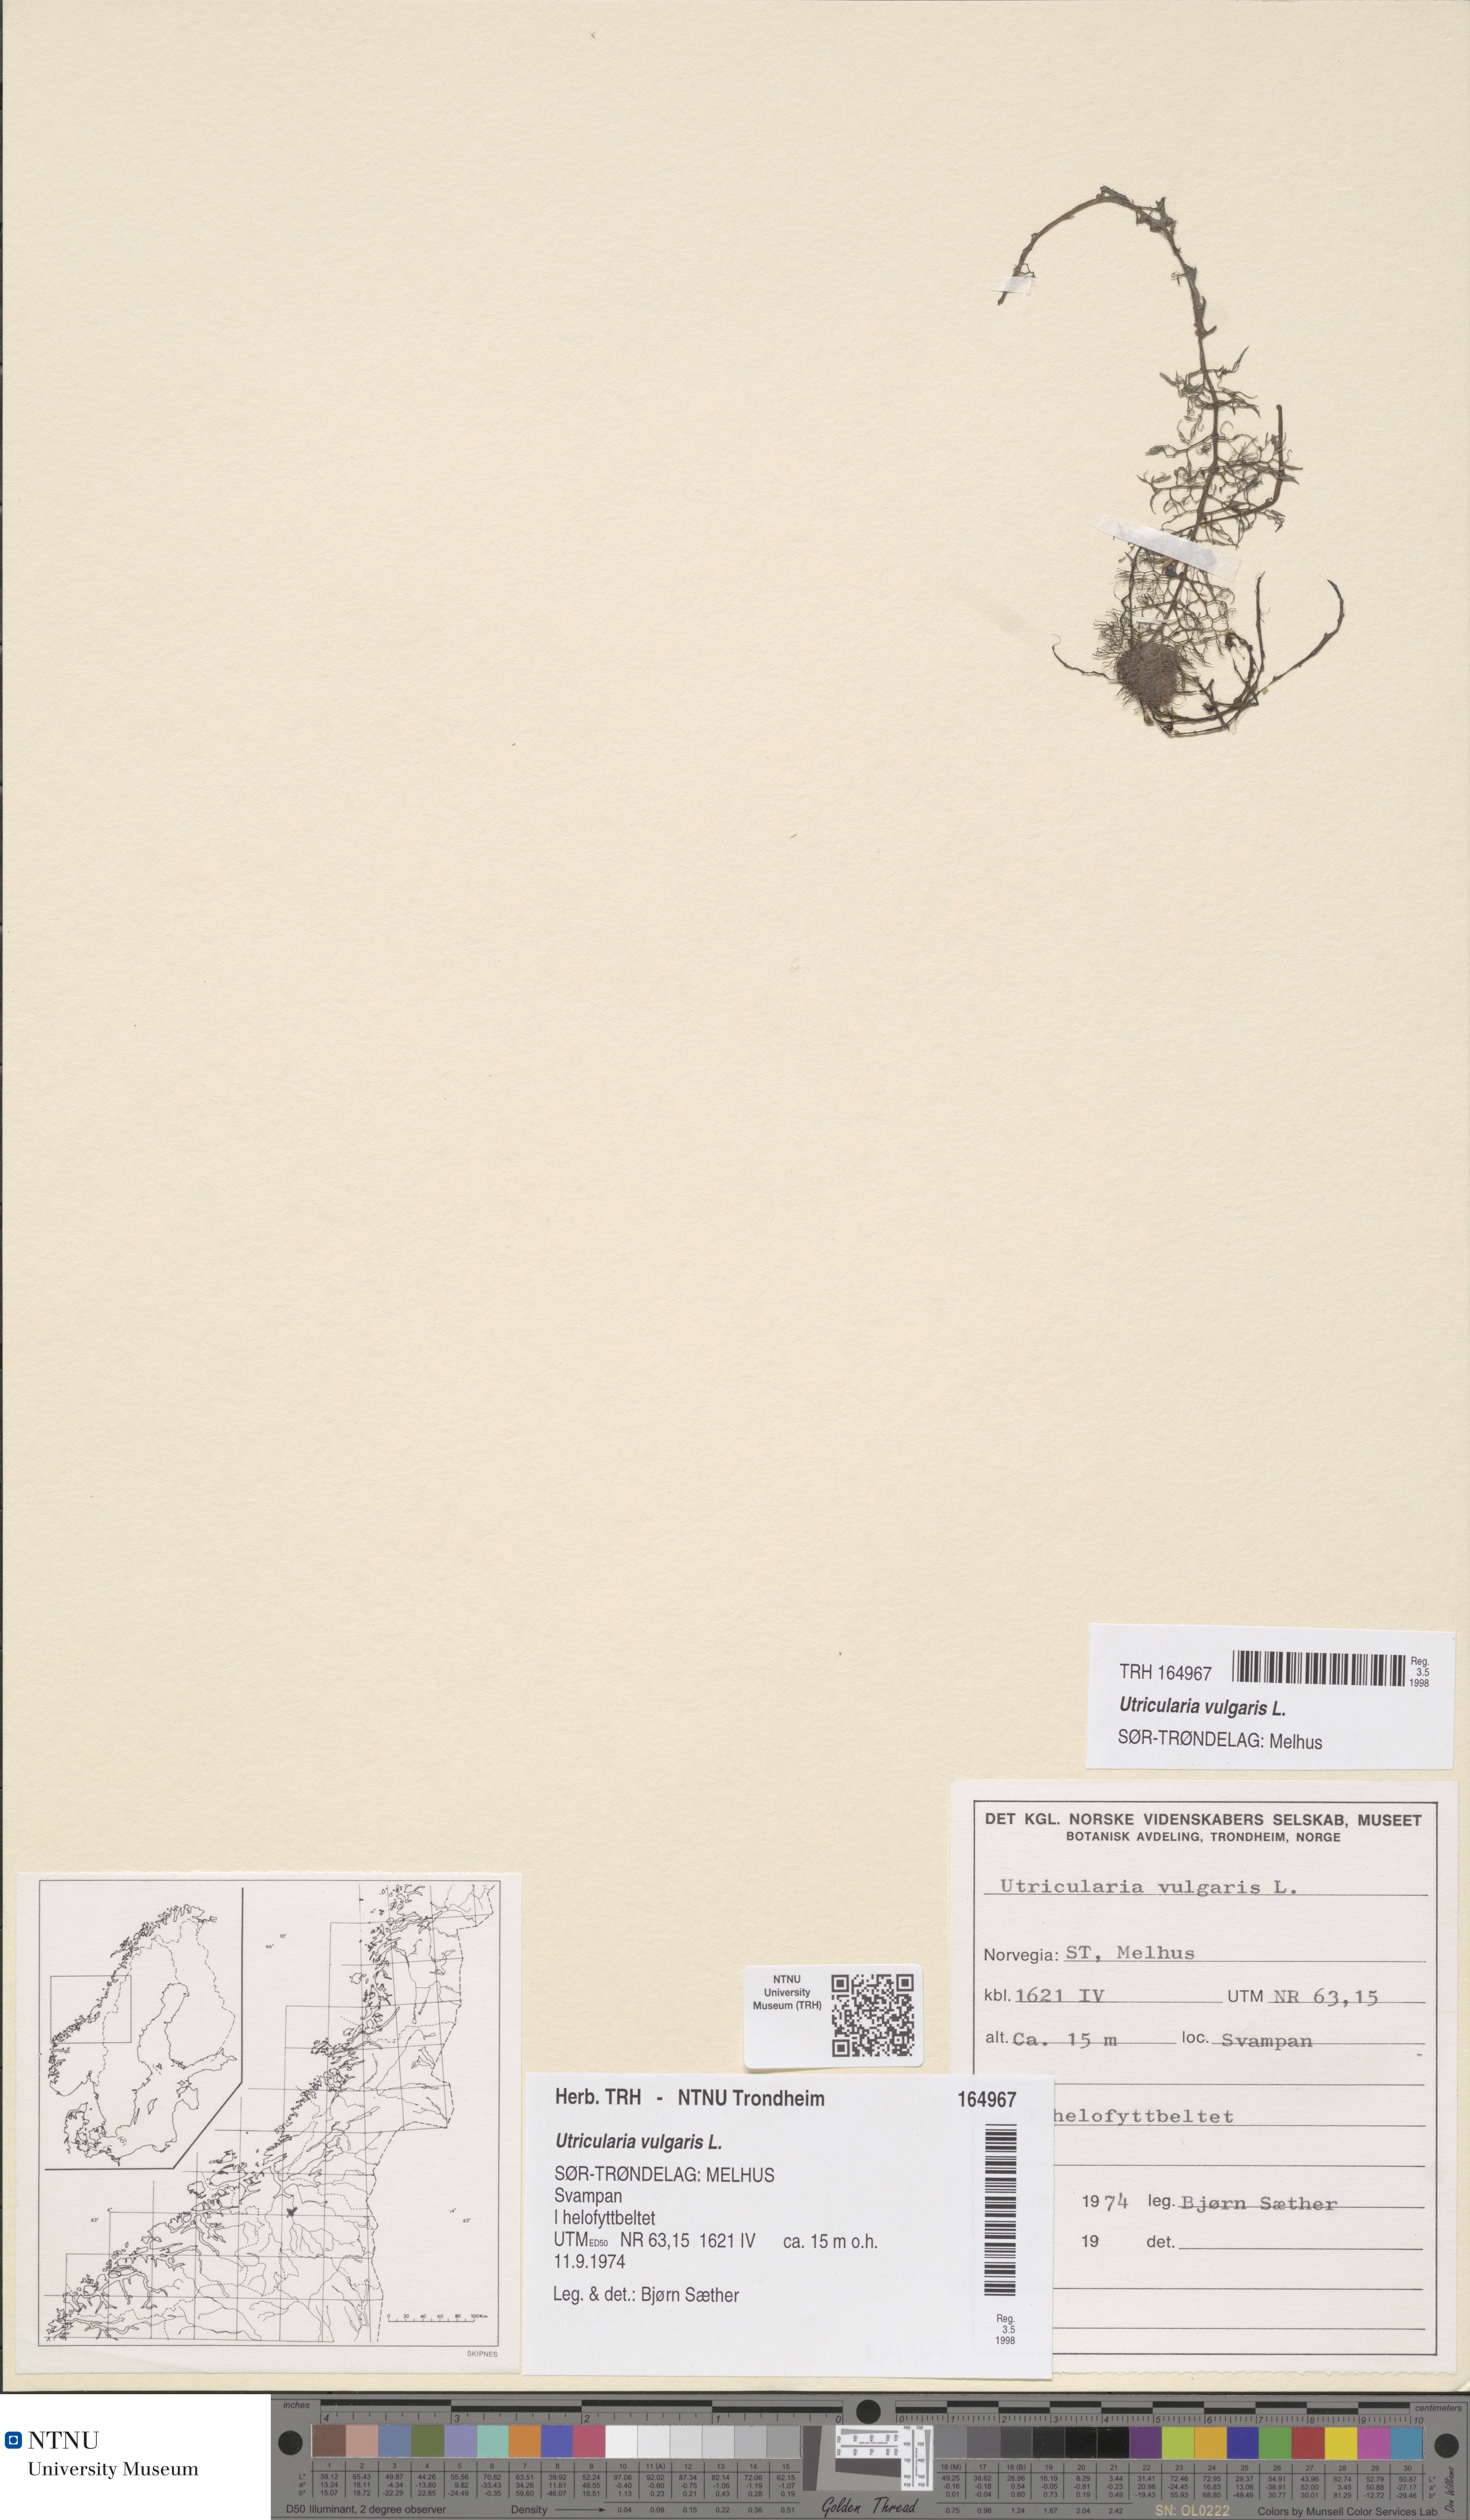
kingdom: Plantae
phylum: Tracheophyta
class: Magnoliopsida
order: Lamiales
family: Lentibulariaceae
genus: Utricularia
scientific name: Utricularia vulgaris
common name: Greater bladderwort
